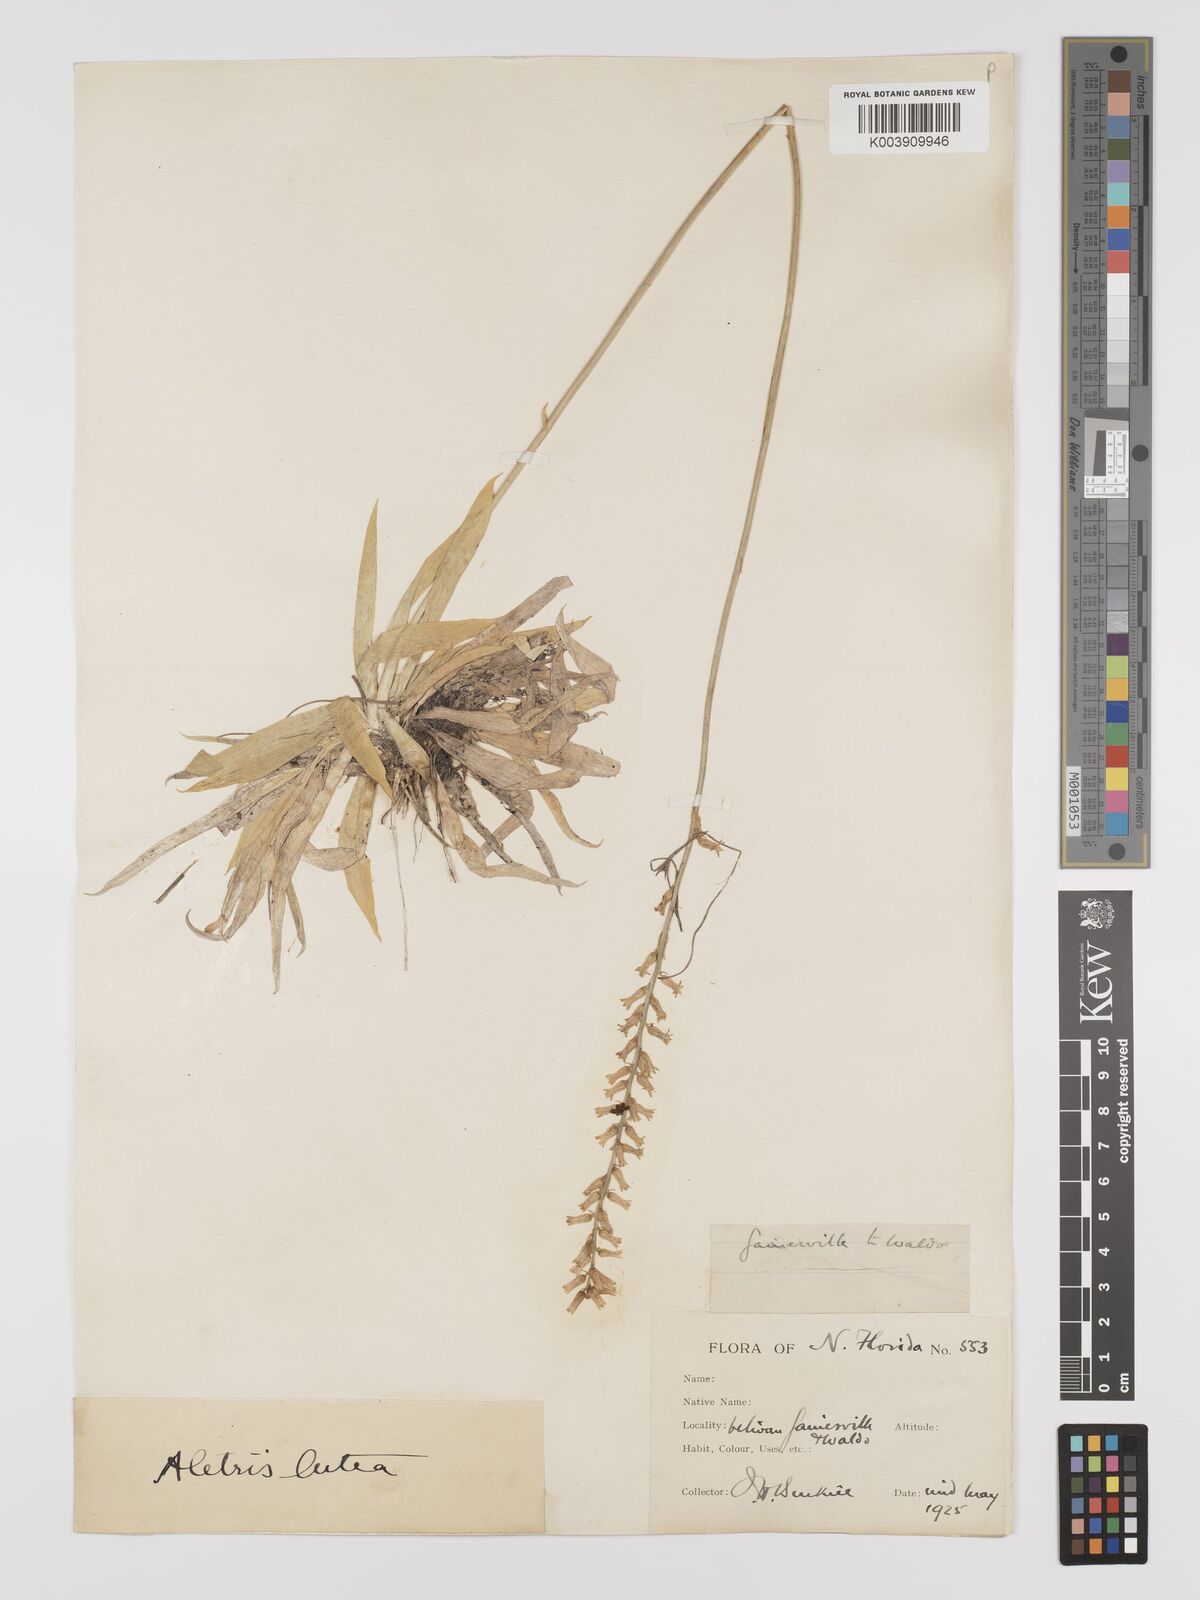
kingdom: Plantae
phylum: Tracheophyta
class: Liliopsida
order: Dioscoreales
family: Nartheciaceae
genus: Aletris
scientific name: Aletris lutea
